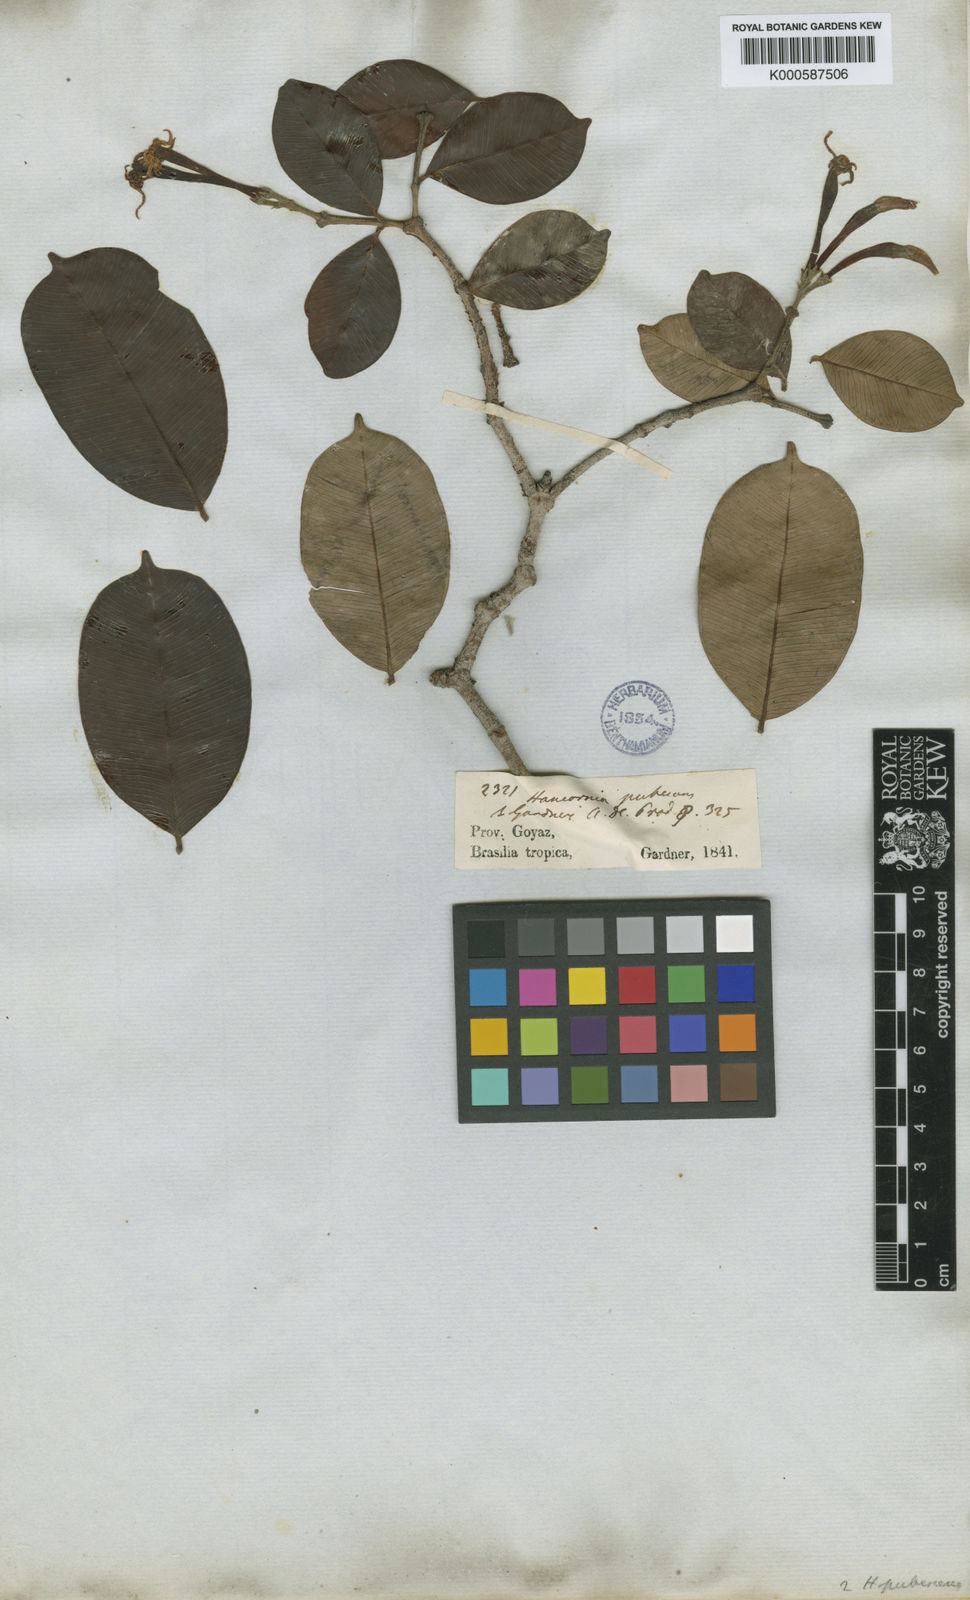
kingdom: Plantae
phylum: Tracheophyta
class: Magnoliopsida
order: Gentianales
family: Apocynaceae
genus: Hancornia
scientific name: Hancornia speciosa
